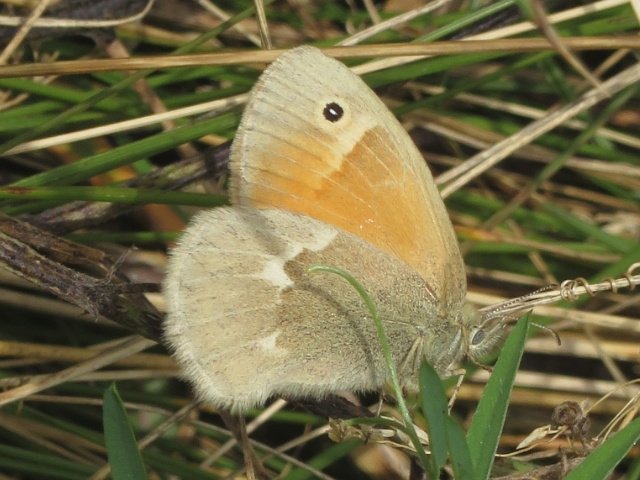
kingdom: Animalia
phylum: Arthropoda
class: Insecta
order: Lepidoptera
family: Nymphalidae
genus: Coenonympha
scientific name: Coenonympha tullia
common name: Large Heath
